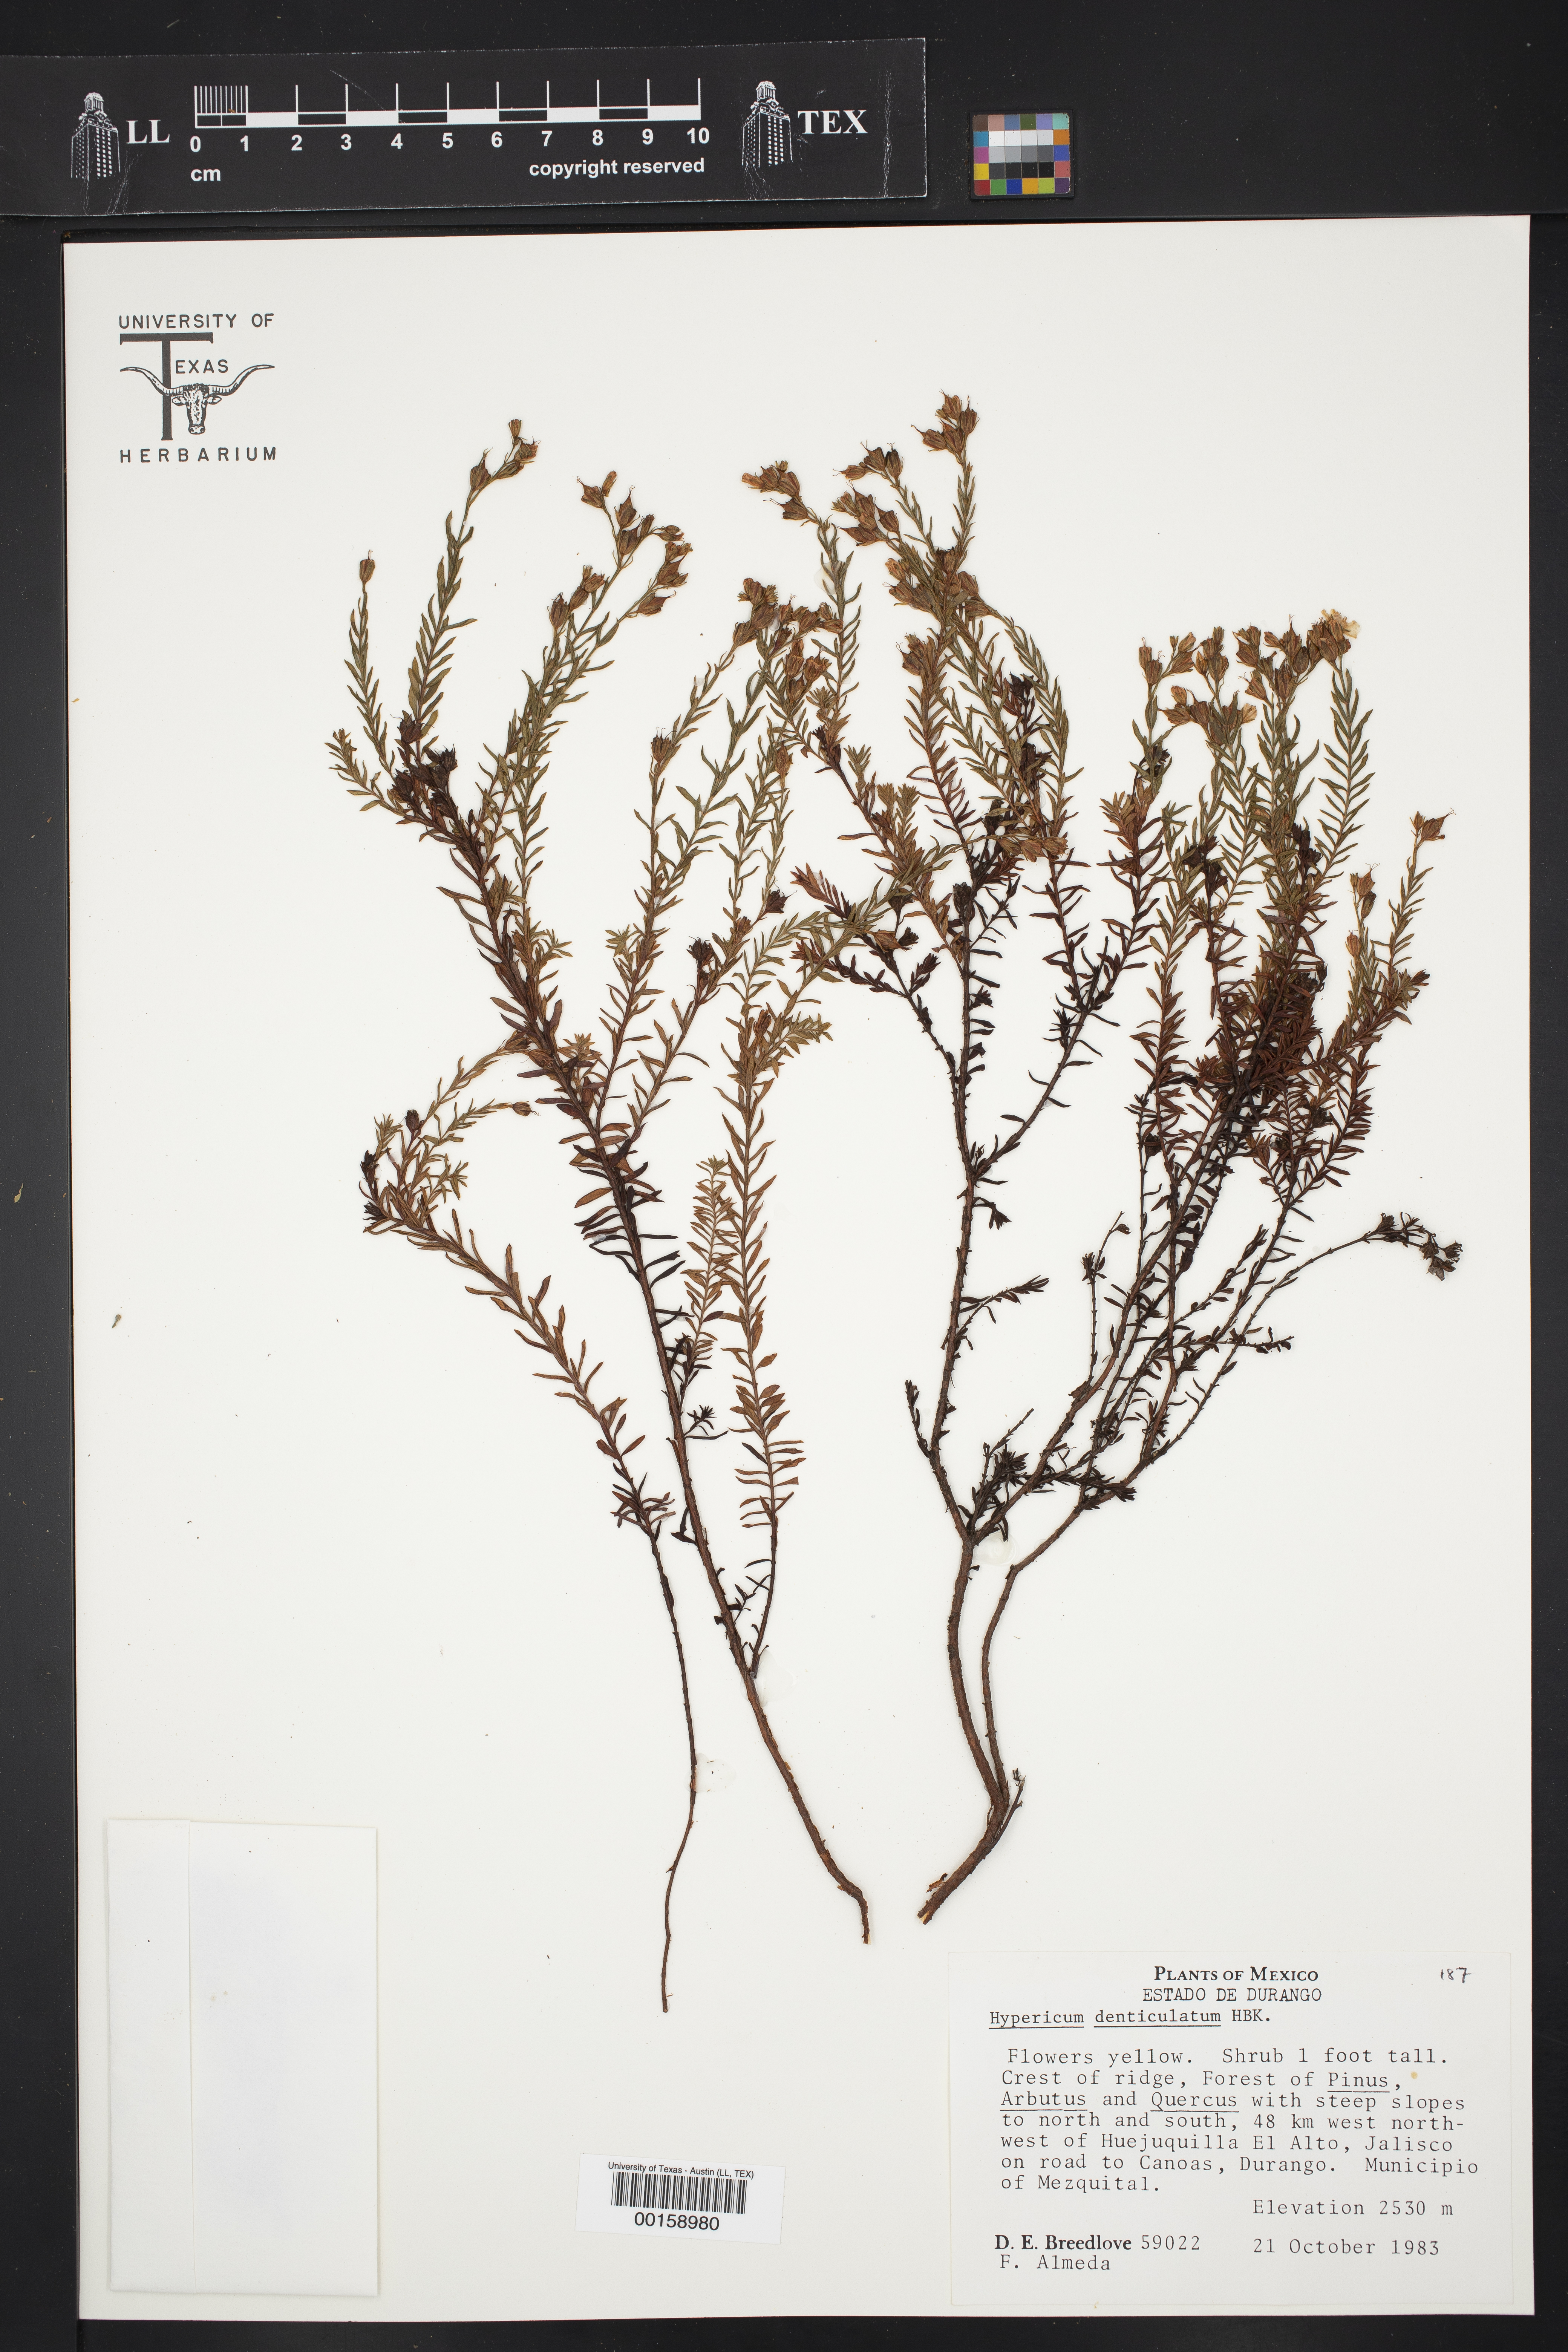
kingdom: Plantae
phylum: Tracheophyta
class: Magnoliopsida
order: Malpighiales
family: Hypericaceae
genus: Hypericum
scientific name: Hypericum denticulatum
